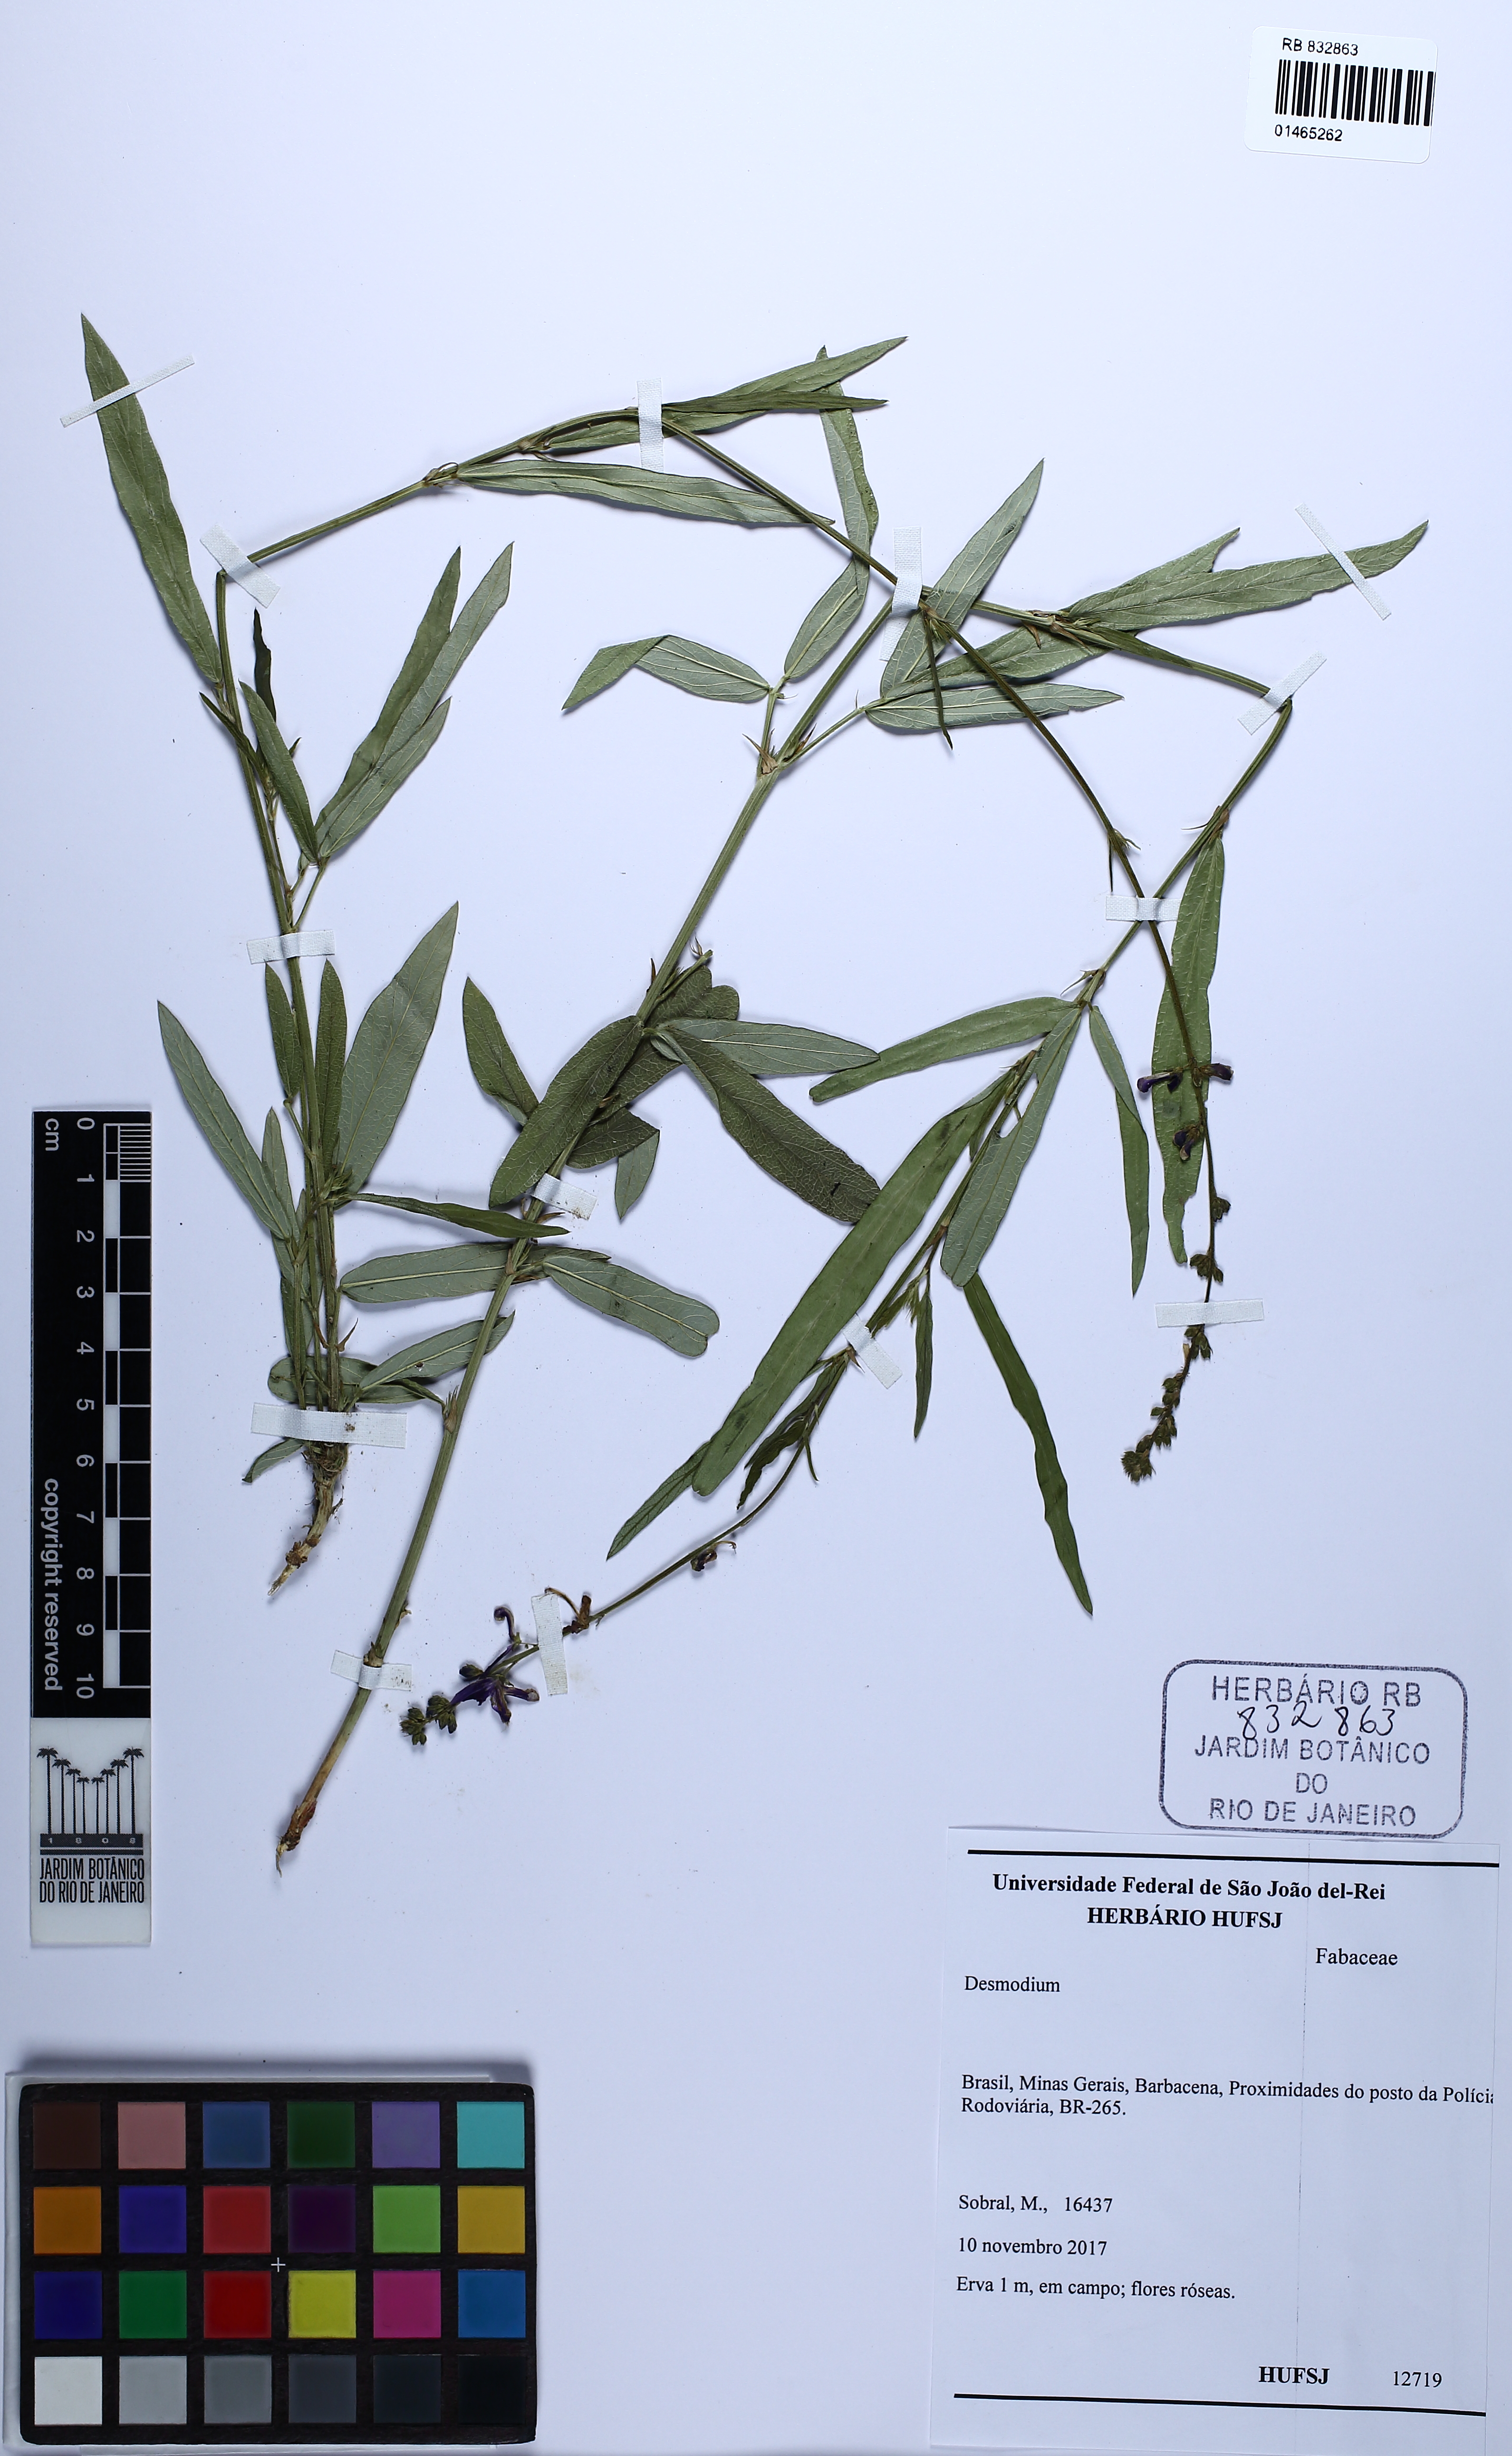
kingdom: Plantae
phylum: Tracheophyta
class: Magnoliopsida
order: Fabales
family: Fabaceae
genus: Desmodium
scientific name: Desmodium platycarpum
